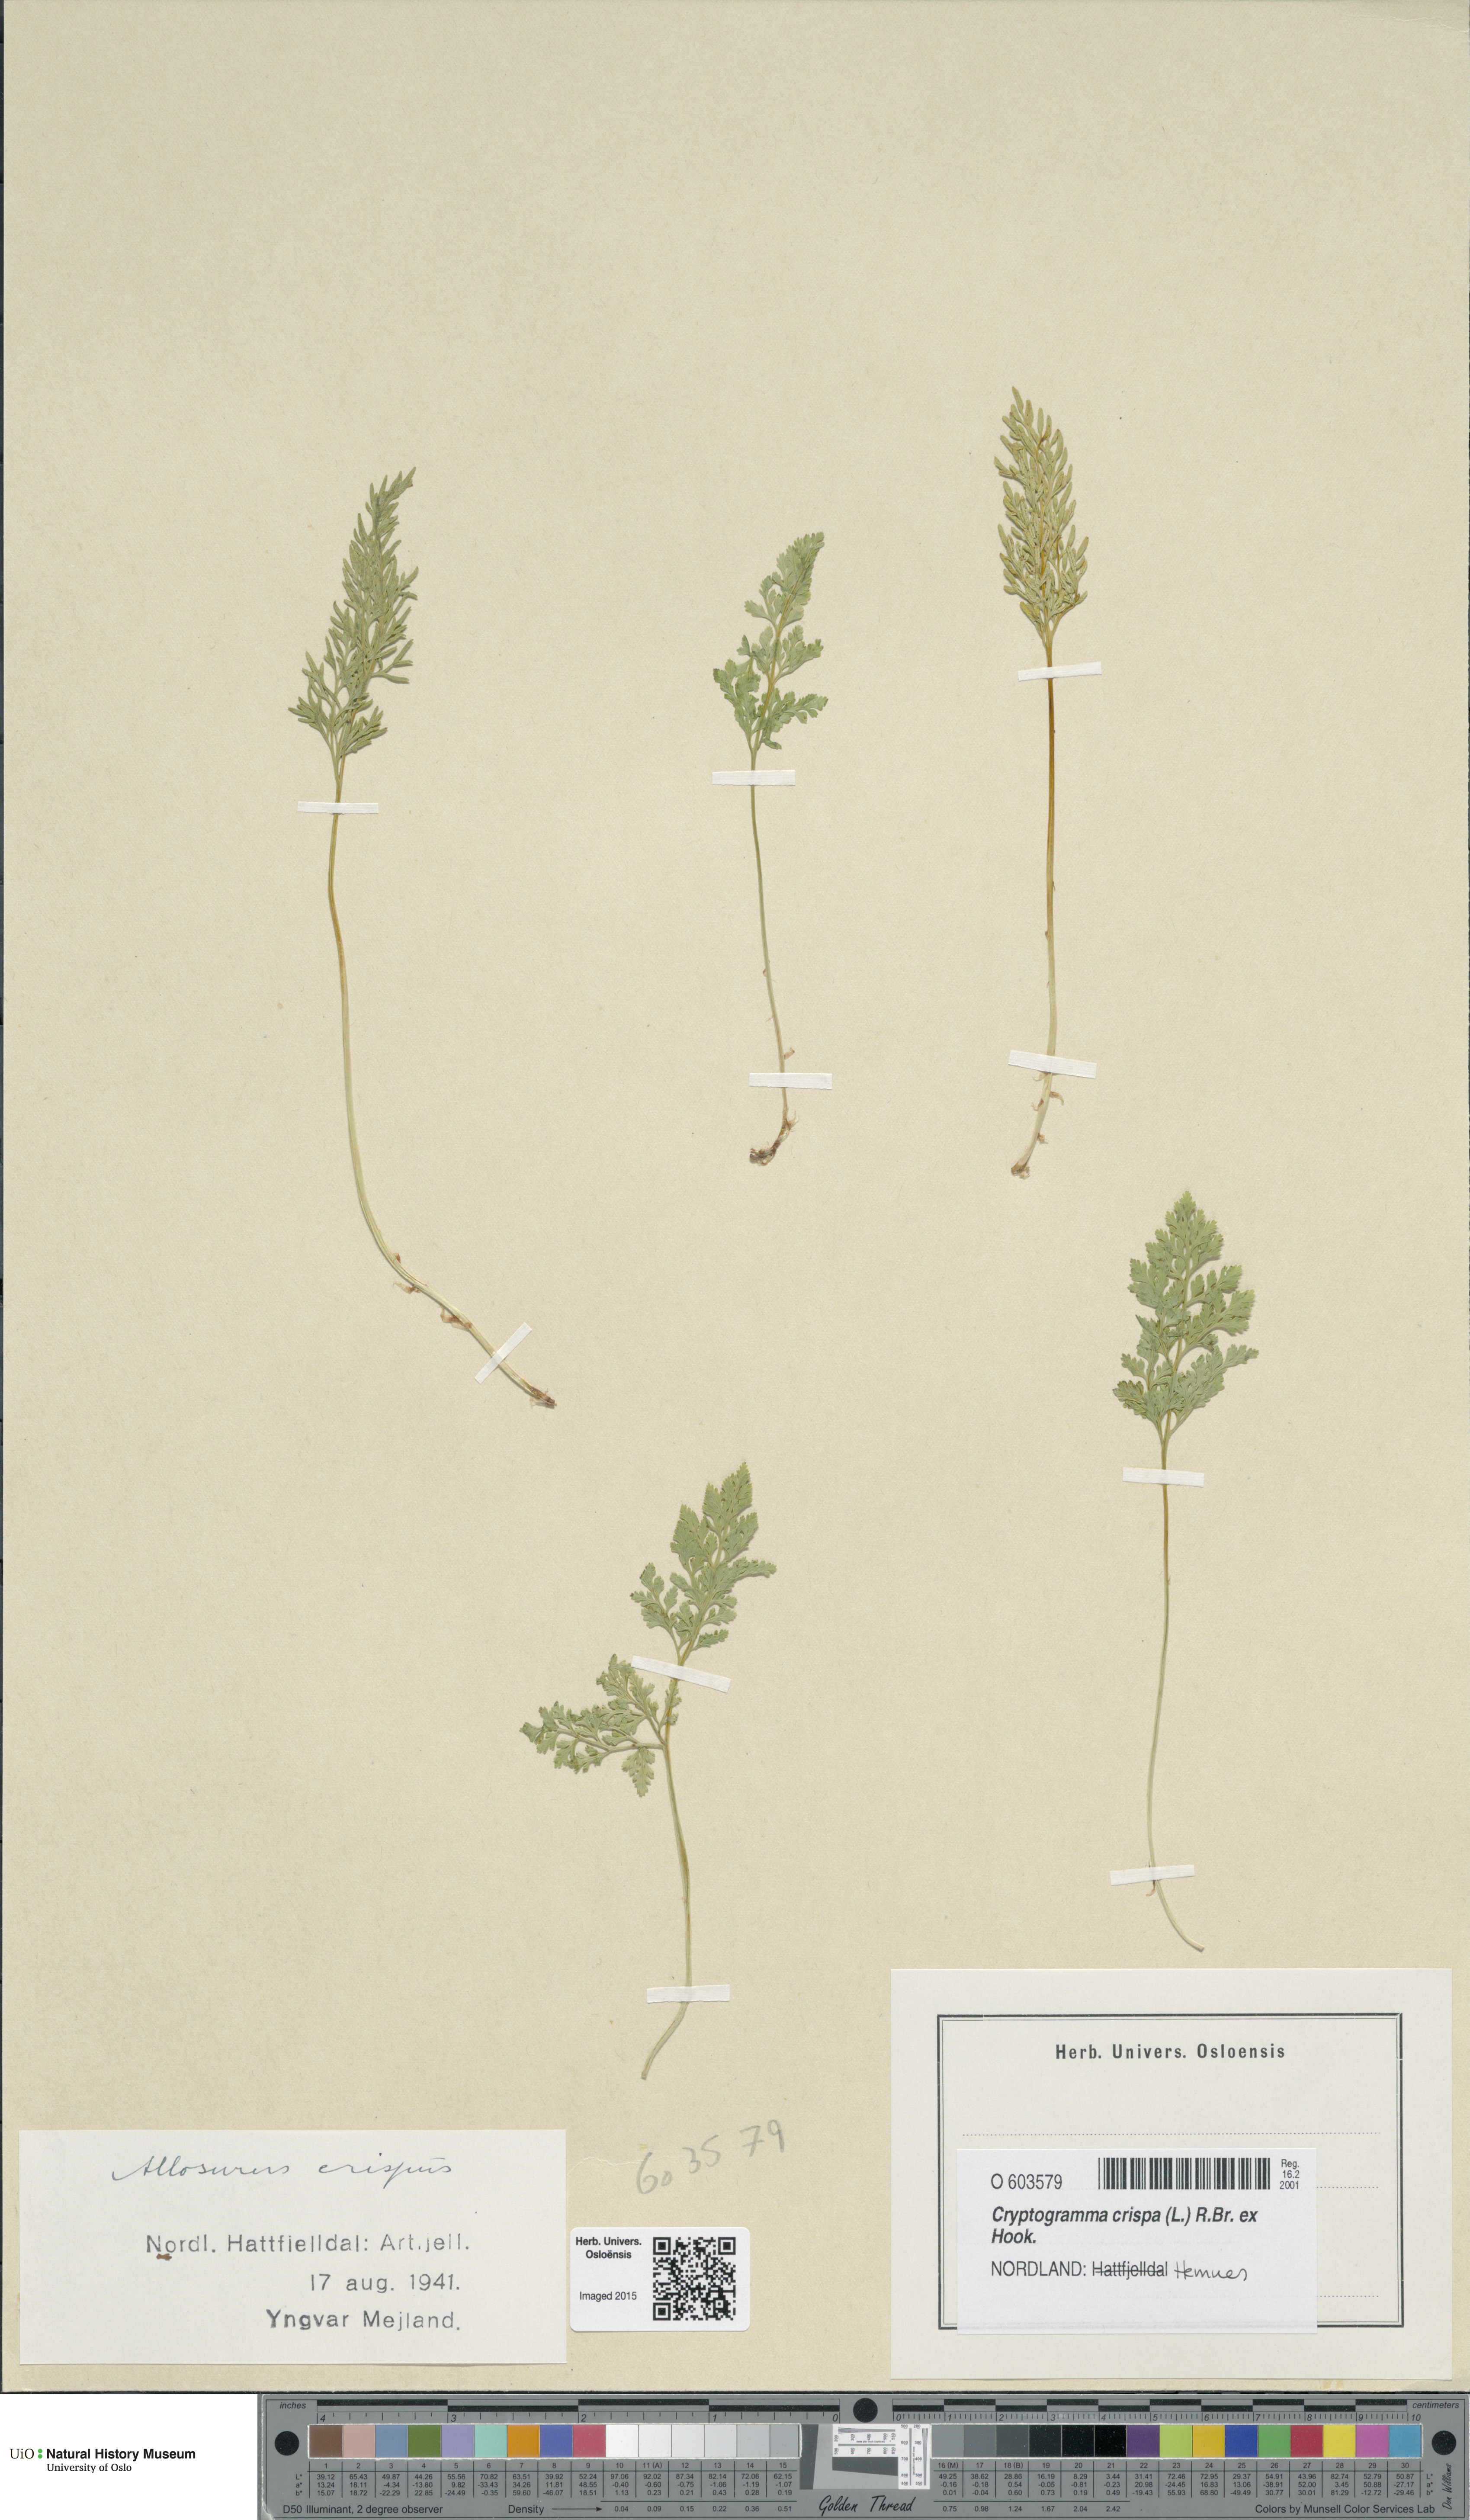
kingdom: Plantae
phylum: Tracheophyta
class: Polypodiopsida
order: Polypodiales
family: Pteridaceae
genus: Cryptogramma
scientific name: Cryptogramma crispa
